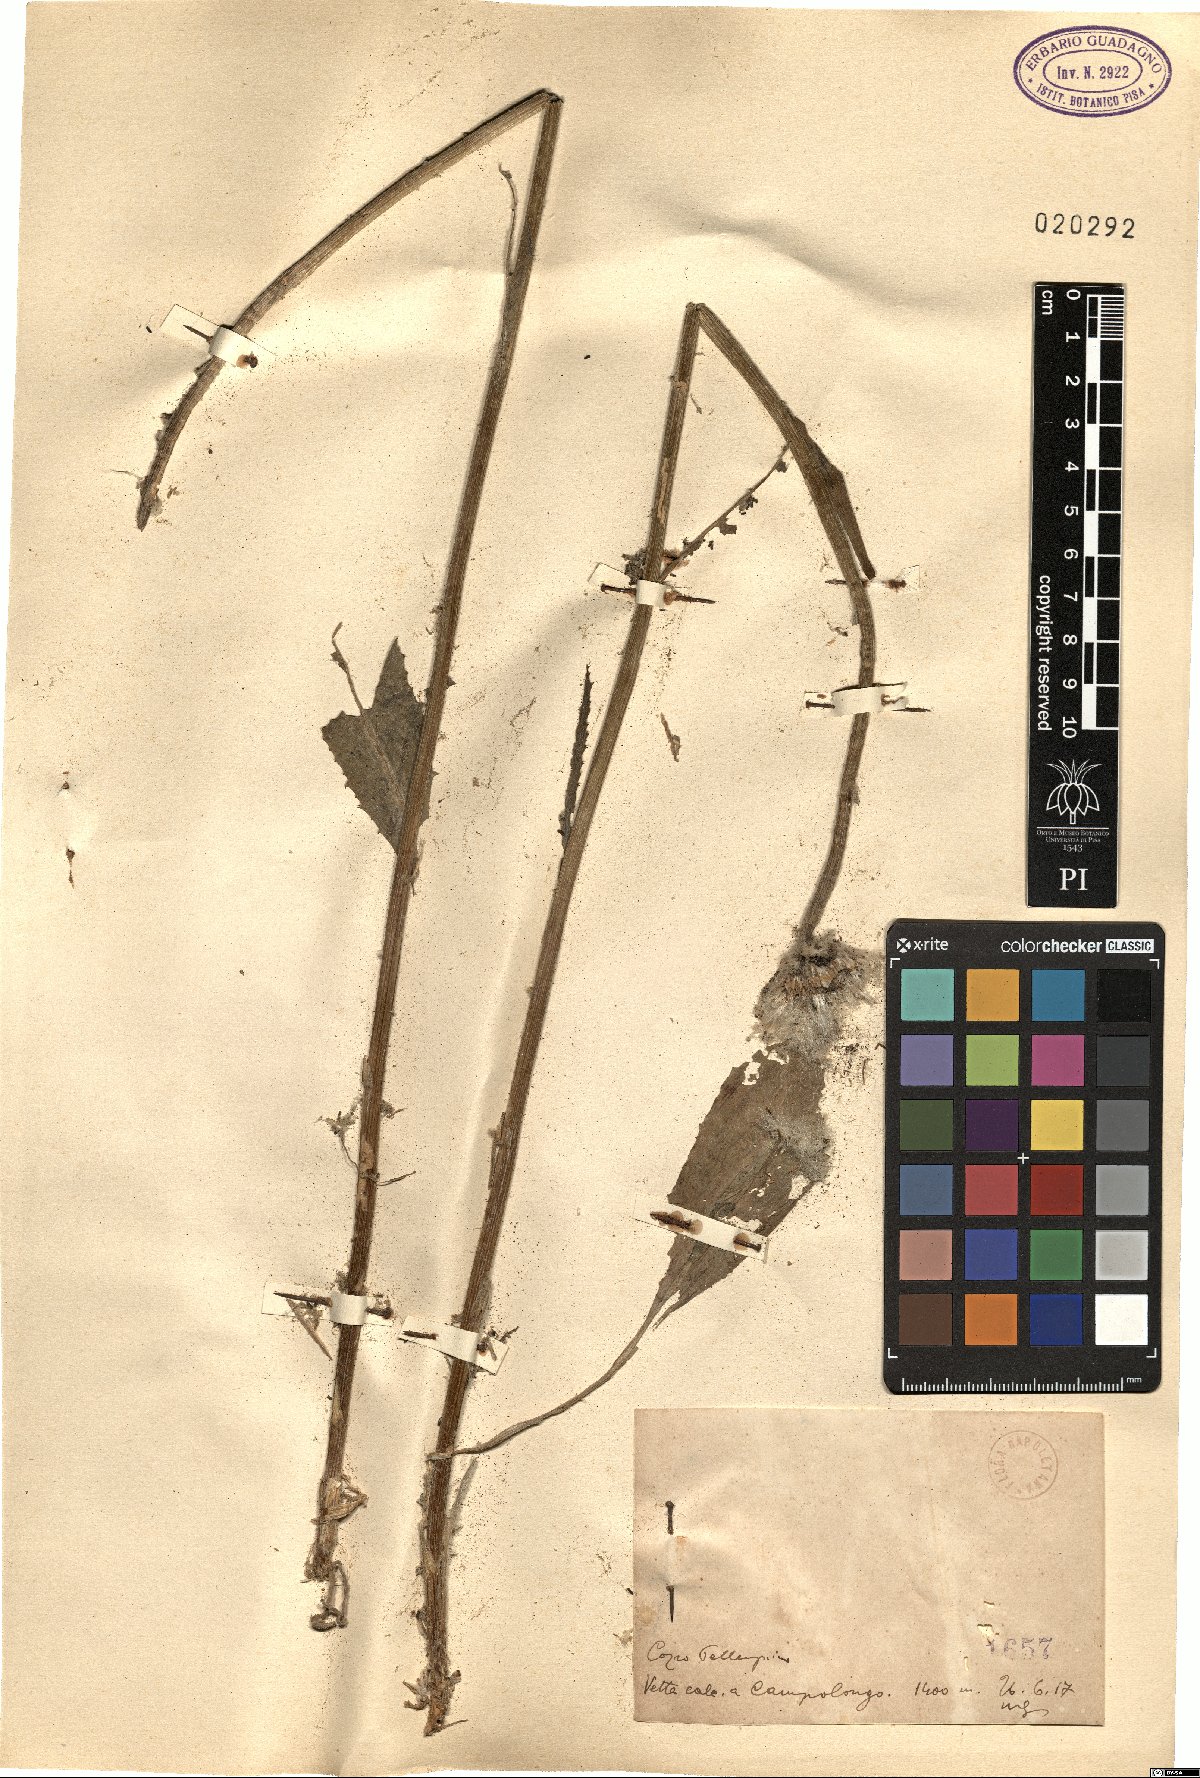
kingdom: Plantae
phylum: Tracheophyta
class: Magnoliopsida
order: Asterales
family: Asteraceae
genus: Senecio
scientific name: Senecio
